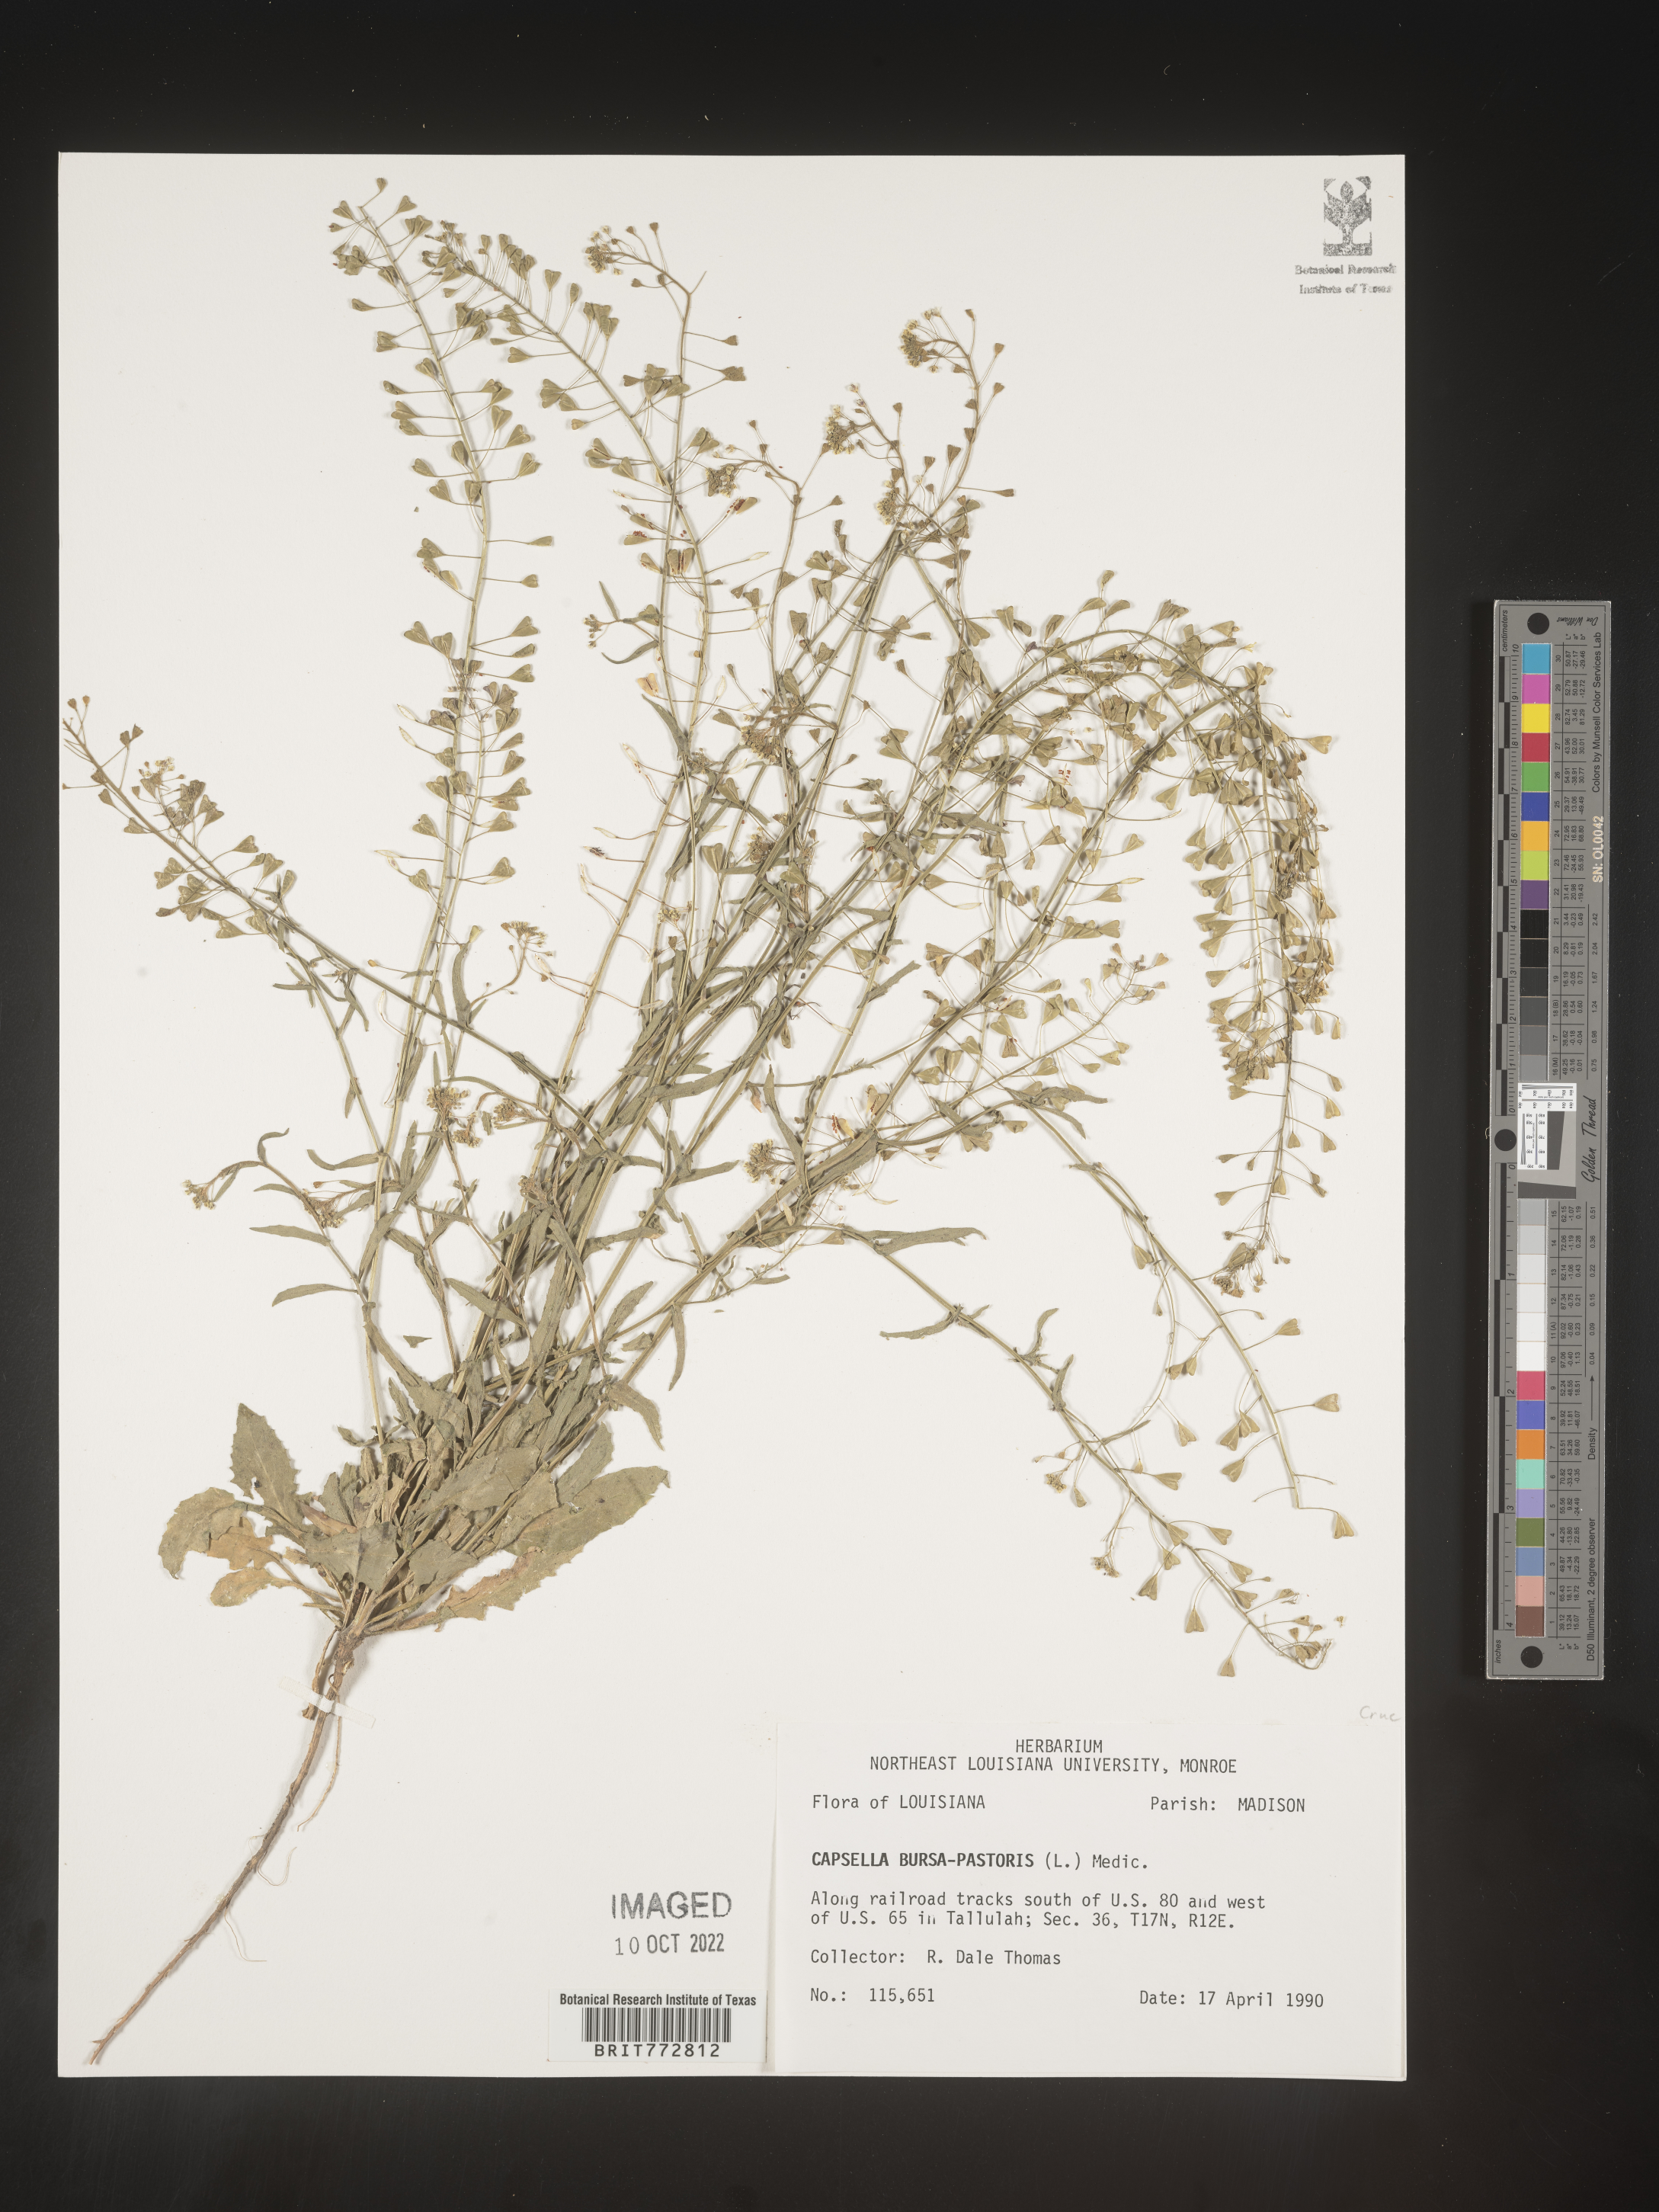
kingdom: Plantae
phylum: Tracheophyta
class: Magnoliopsida
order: Brassicales
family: Brassicaceae
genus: Capsella
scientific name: Capsella bursa-pastoris
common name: Shepherd's purse
